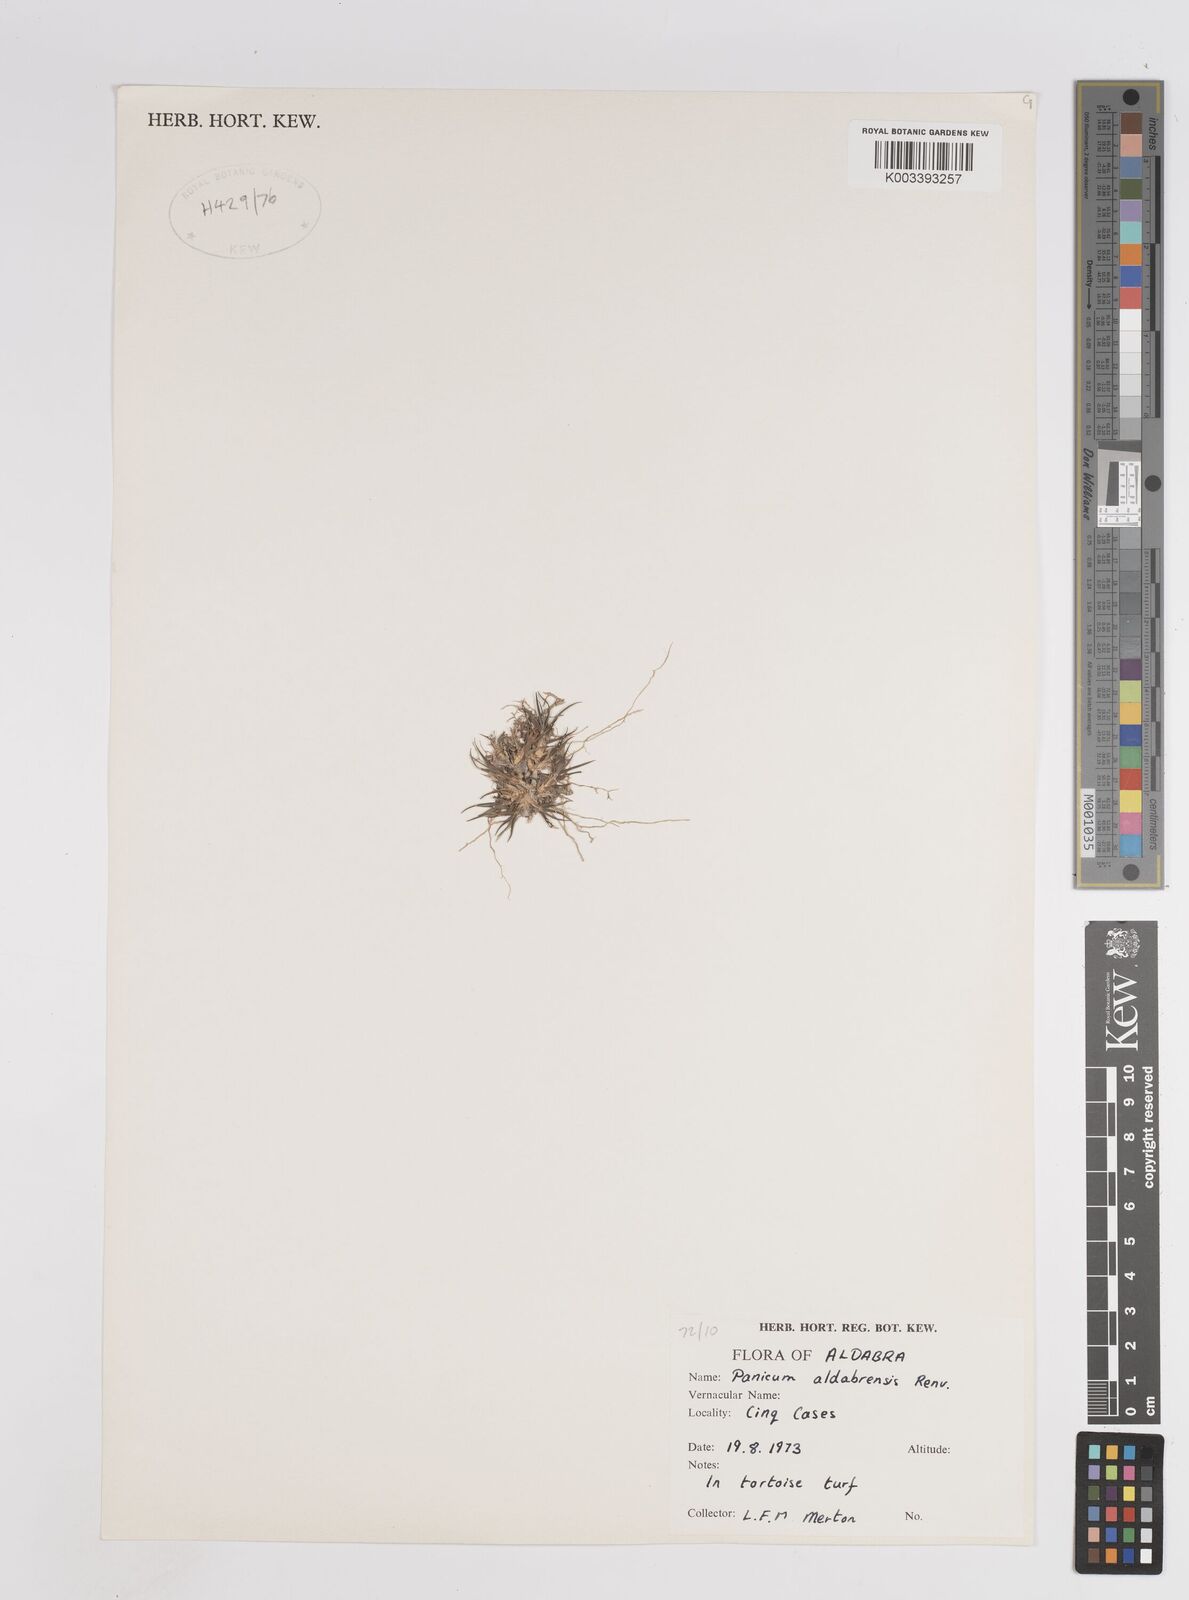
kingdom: Plantae
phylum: Tracheophyta
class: Liliopsida
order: Poales
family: Poaceae
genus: Panicum
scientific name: Panicum aldabrense
